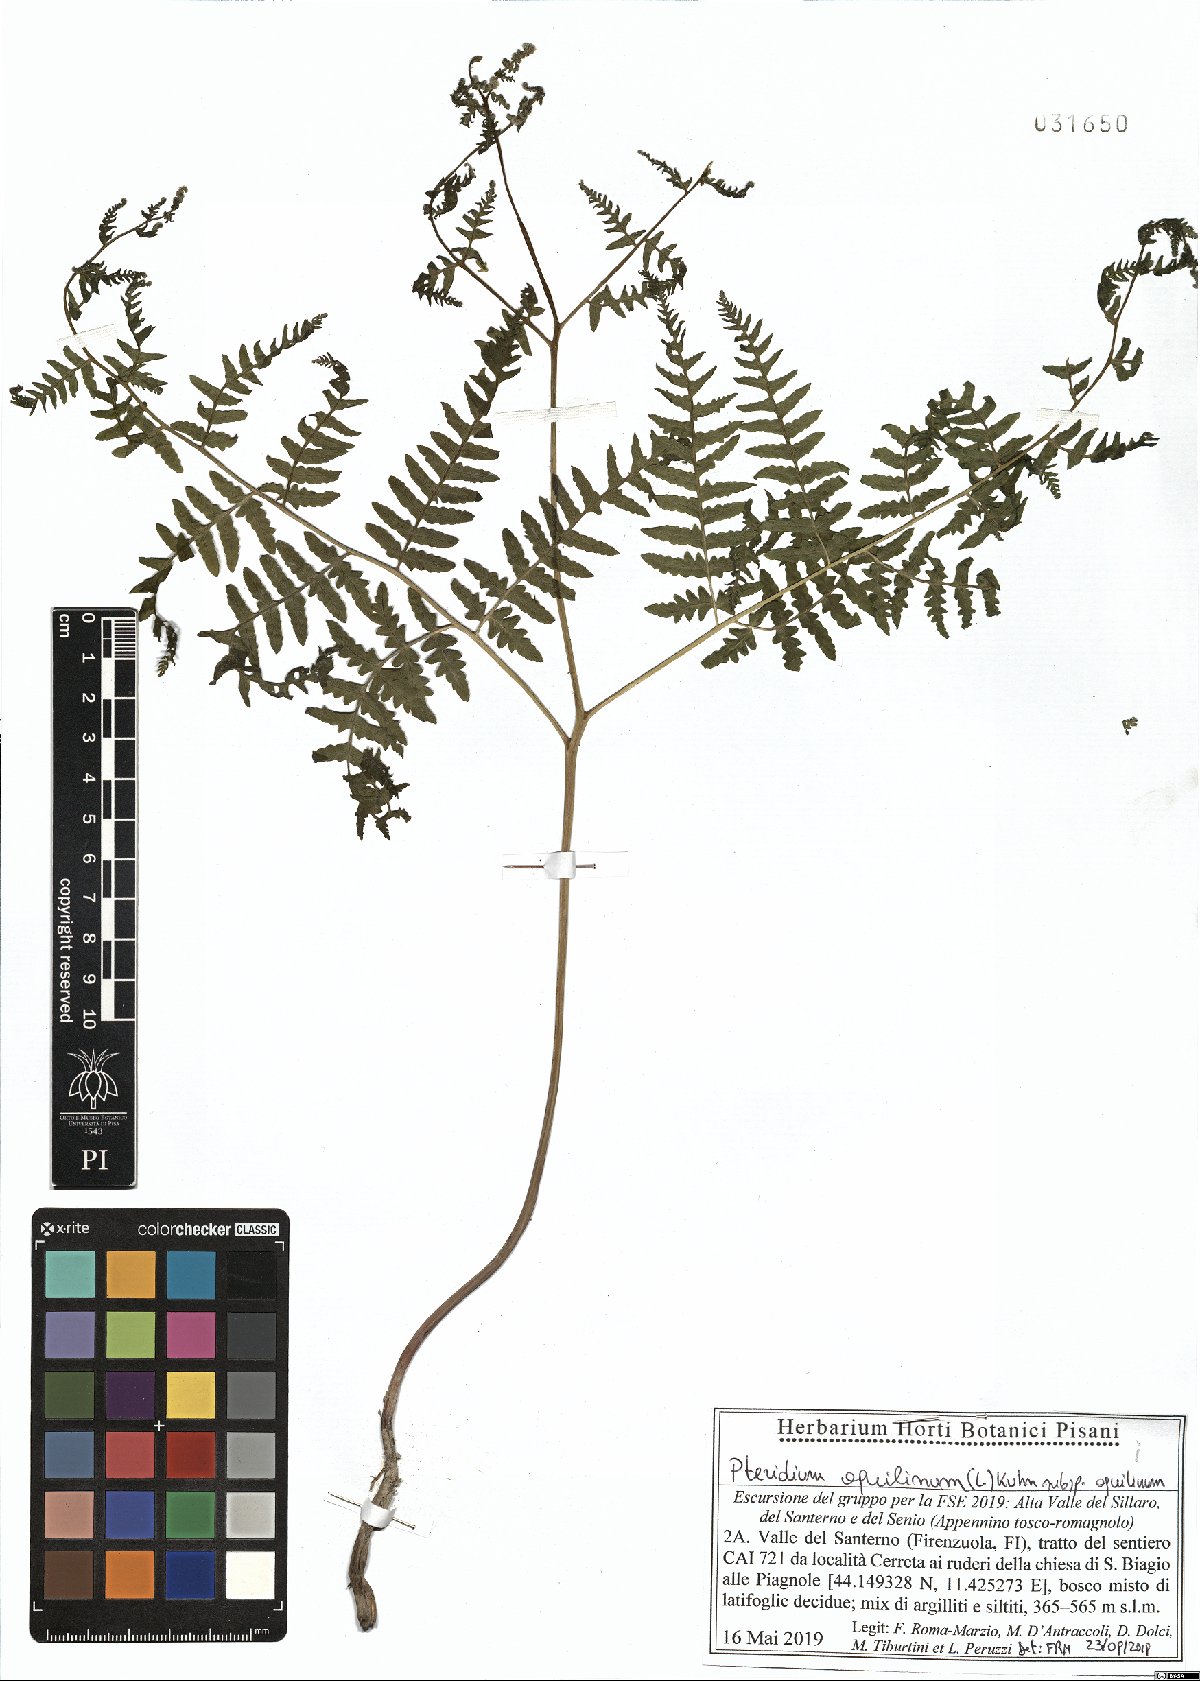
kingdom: Plantae
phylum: Tracheophyta
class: Polypodiopsida
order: Polypodiales
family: Dennstaedtiaceae
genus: Pteridium
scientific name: Pteridium aquilinum
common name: Bracken
